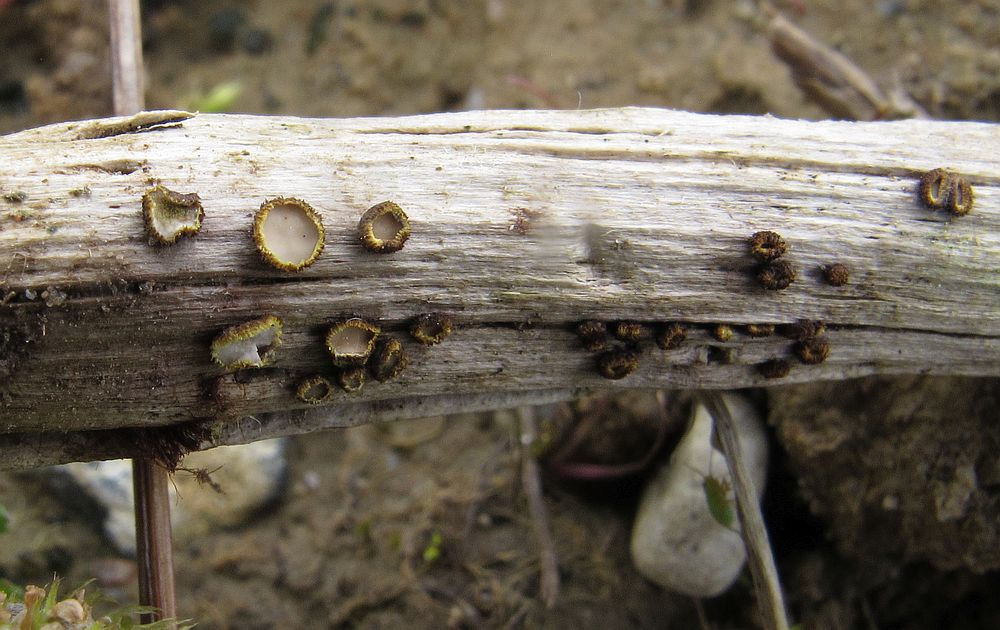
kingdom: Fungi
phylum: Ascomycota
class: Leotiomycetes
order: Helotiales
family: Lachnaceae
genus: Lachnum
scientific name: Lachnum mollissimum
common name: smuk frynseskive
